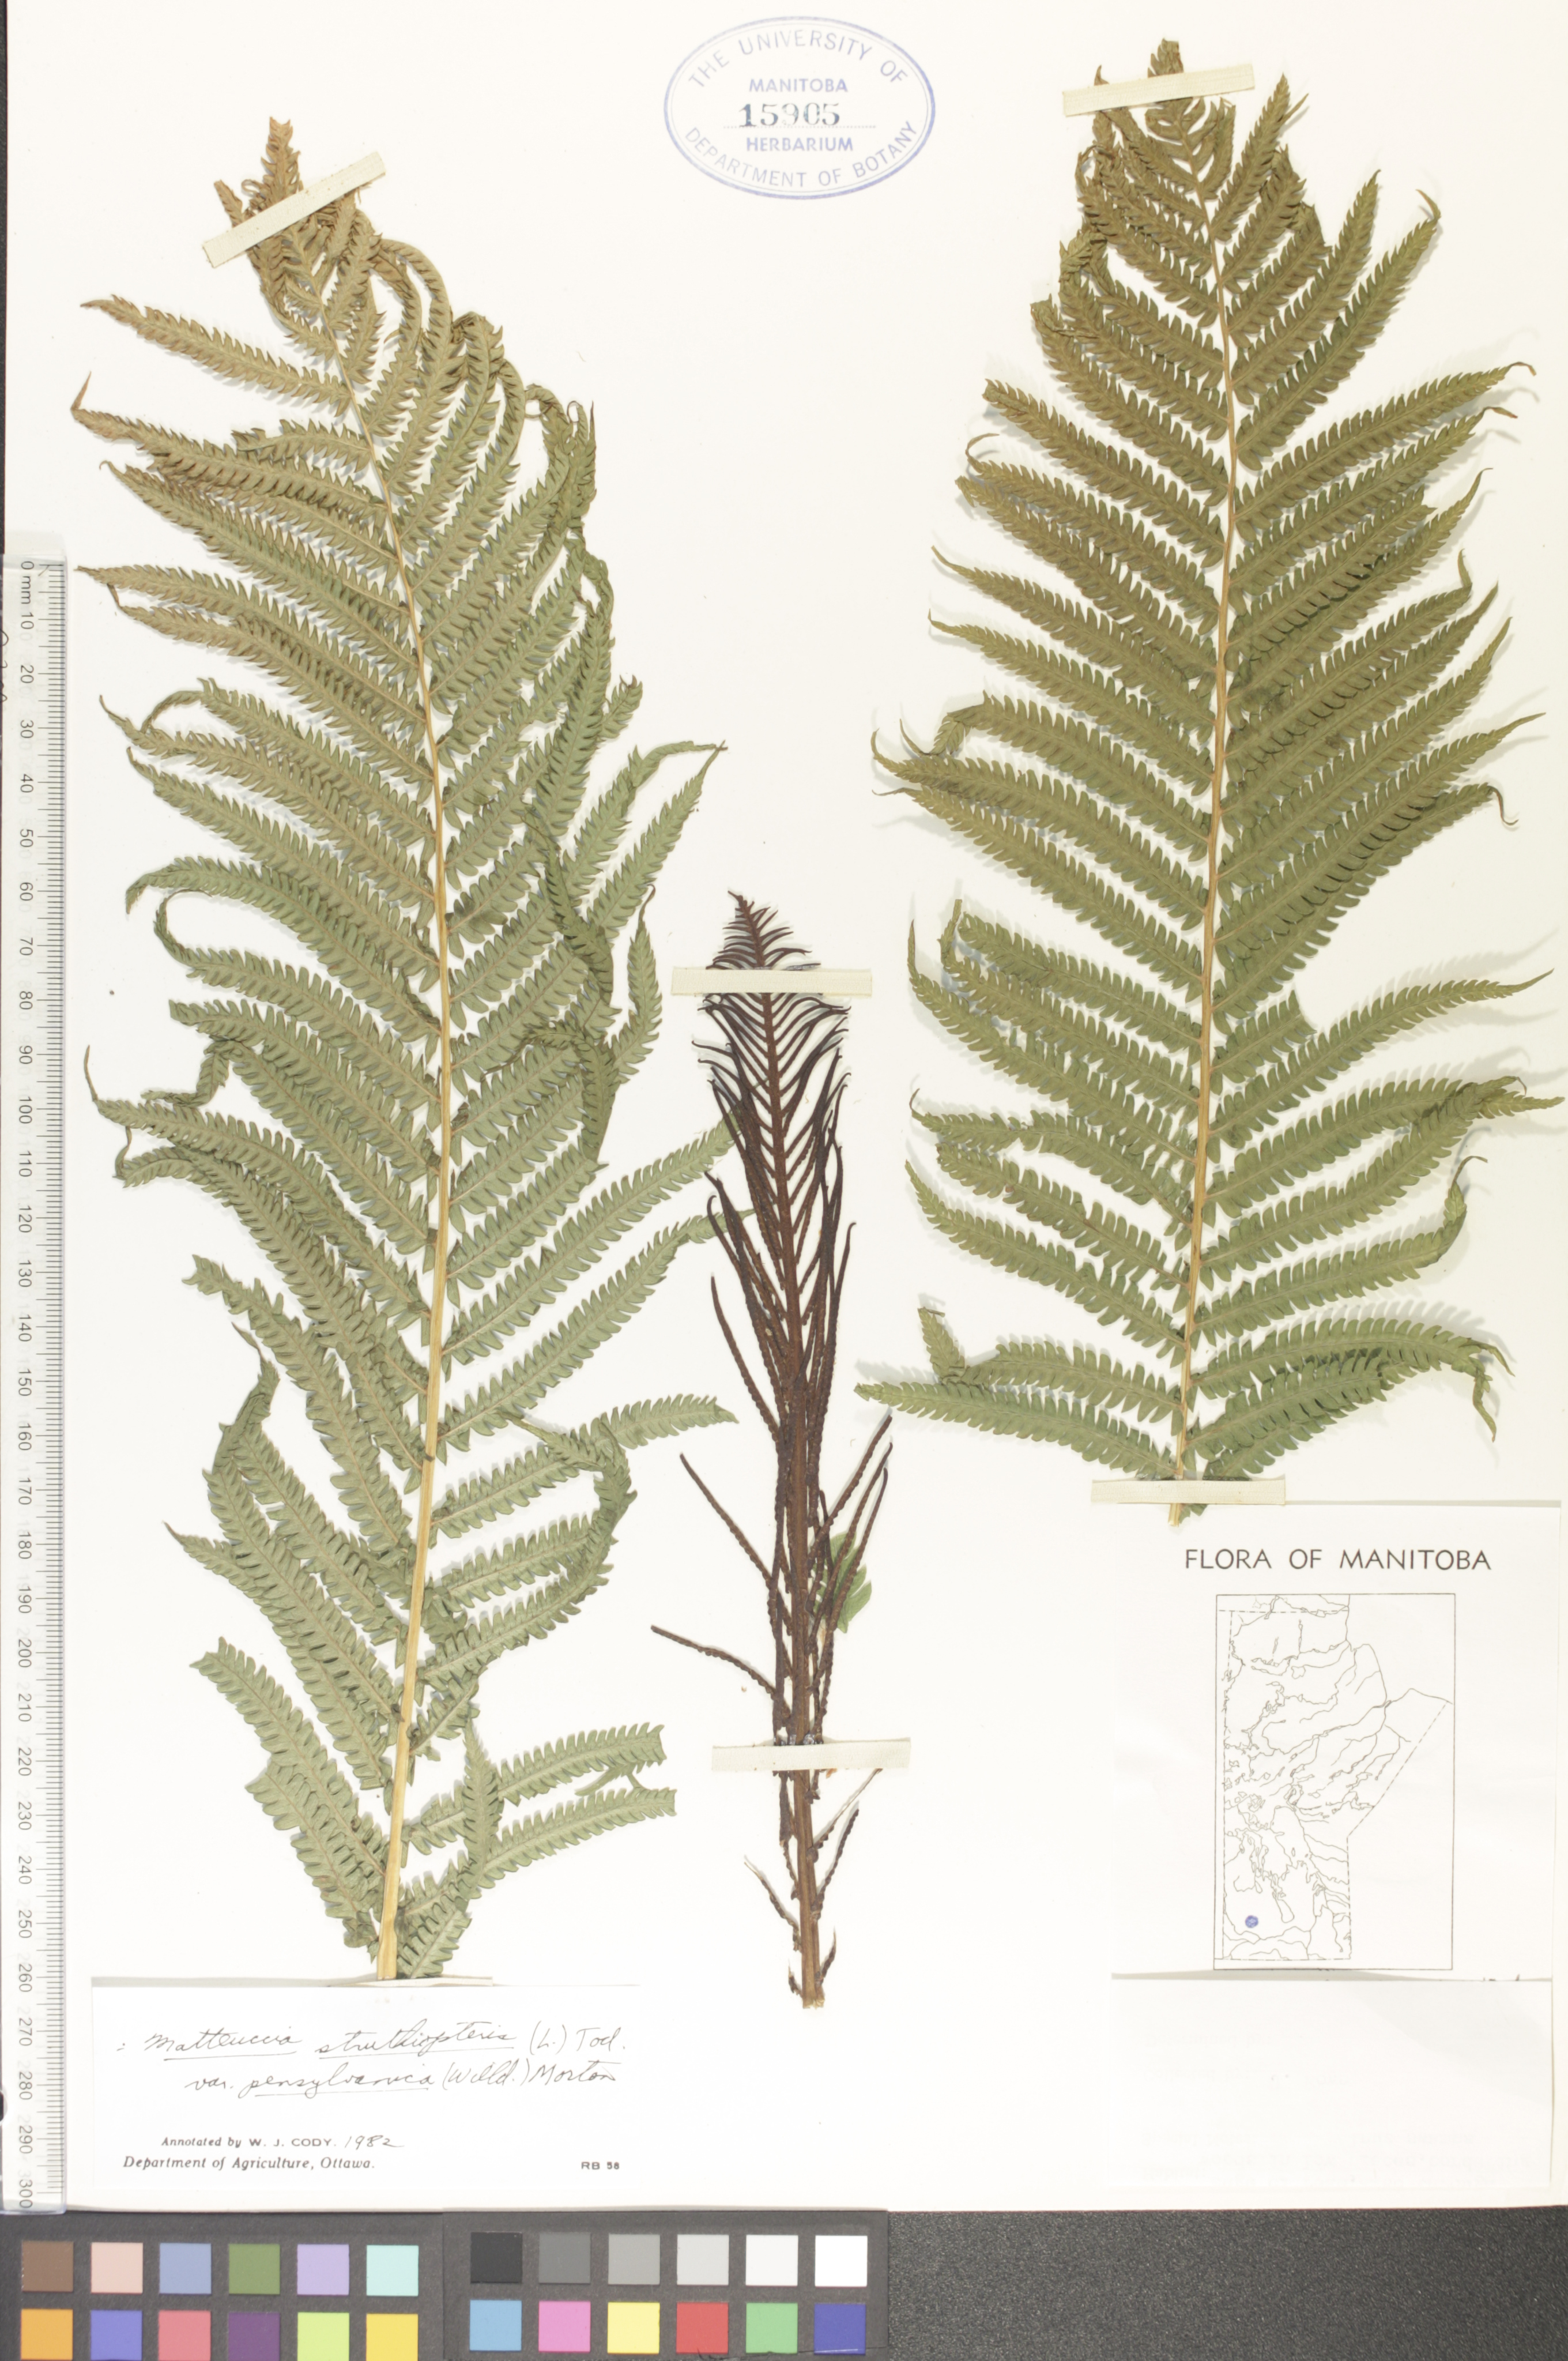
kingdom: Plantae
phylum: Tracheophyta
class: Polypodiopsida
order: Polypodiales
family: Onocleaceae
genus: Matteuccia
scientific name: Matteuccia pensylvanica
